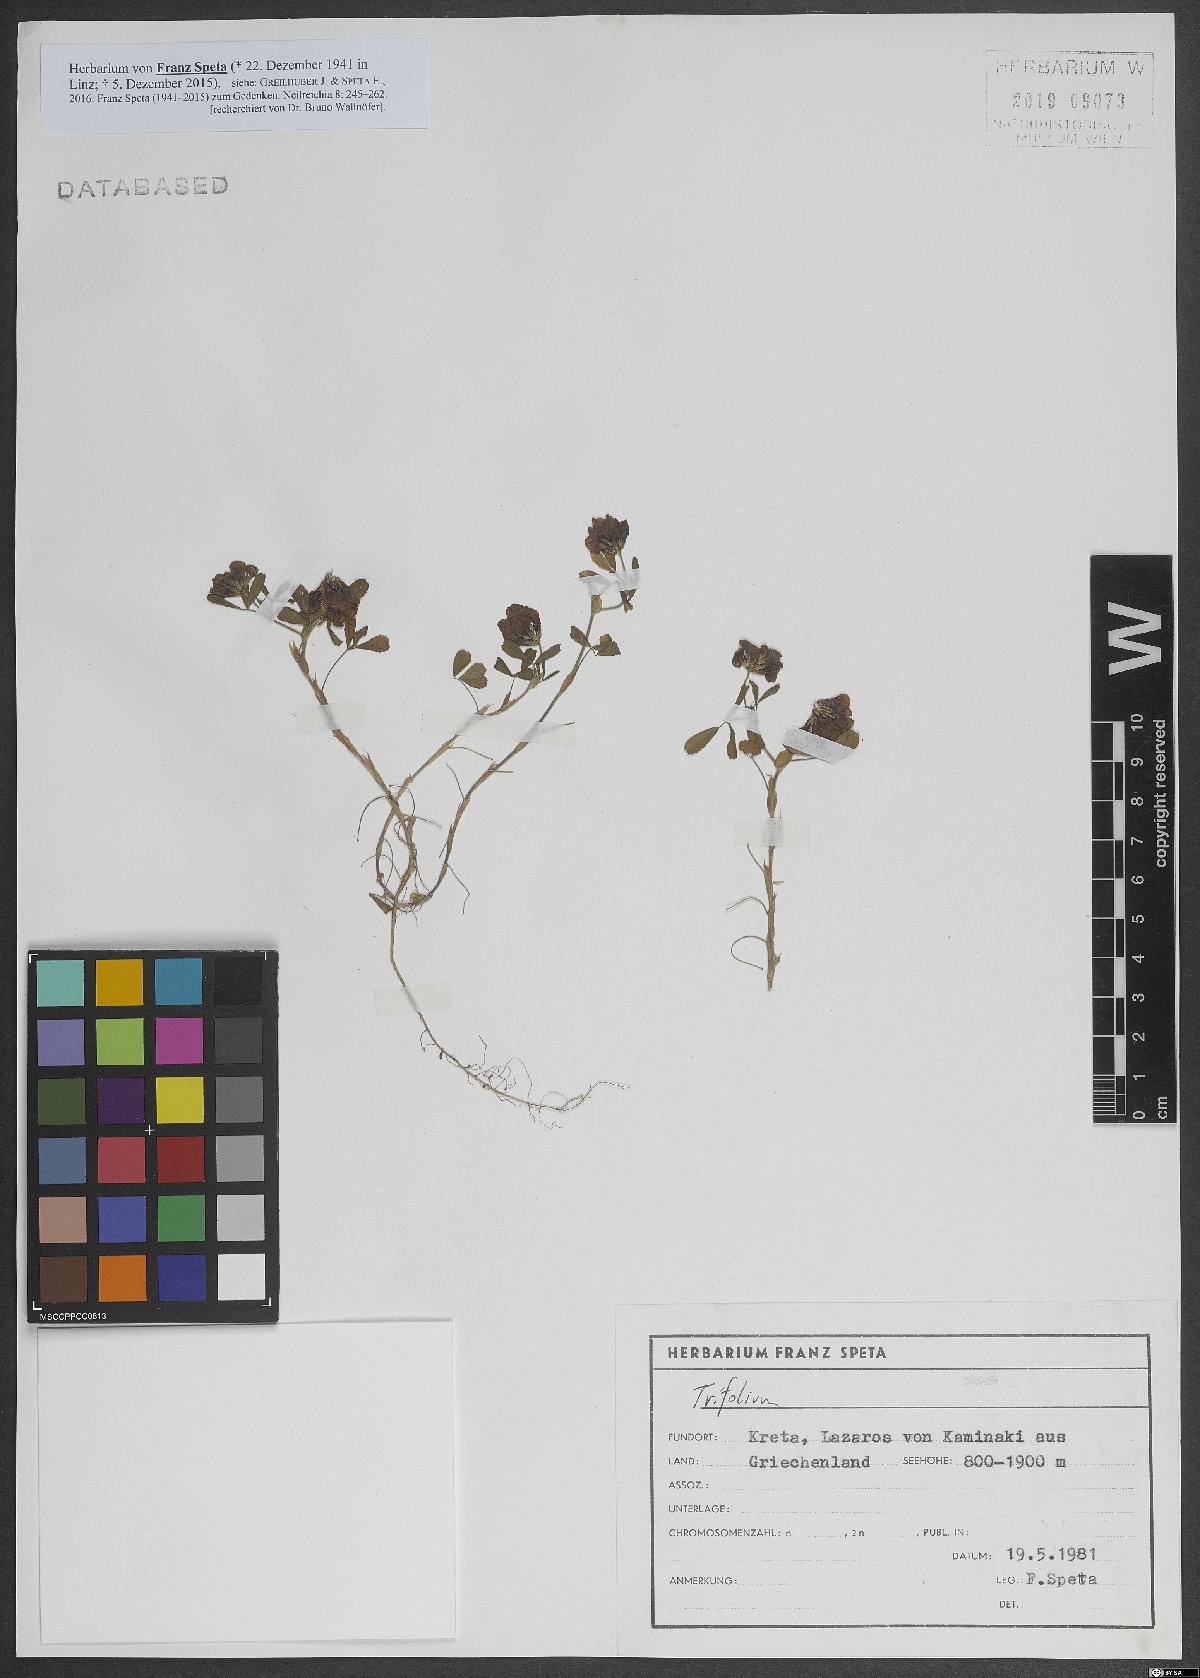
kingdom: Plantae
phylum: Tracheophyta
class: Magnoliopsida
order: Fabales
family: Fabaceae
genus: Trifolium
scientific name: Trifolium grandiflorum
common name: Large-flower hop clover
